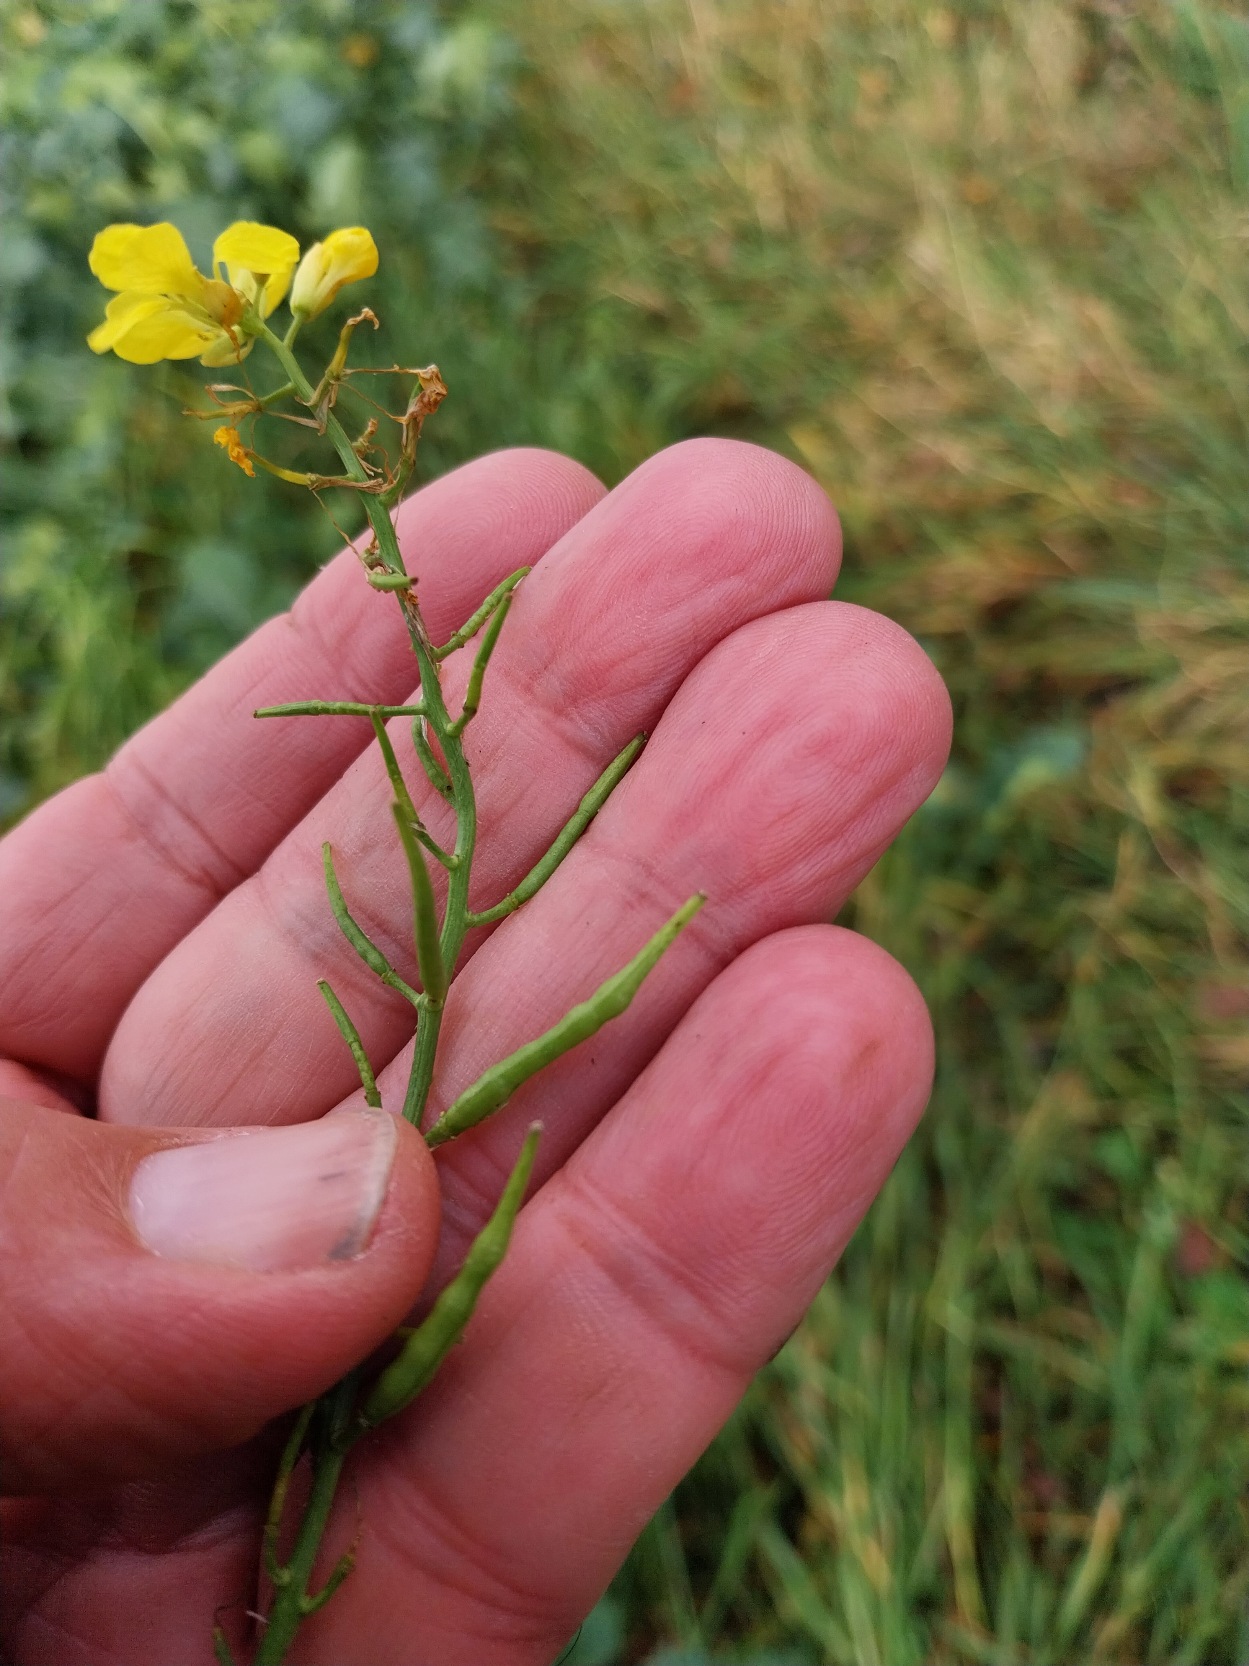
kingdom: Plantae
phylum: Tracheophyta
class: Magnoliopsida
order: Brassicales
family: Brassicaceae
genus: Sinapis
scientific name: Sinapis arvensis
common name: Ager-sennep
